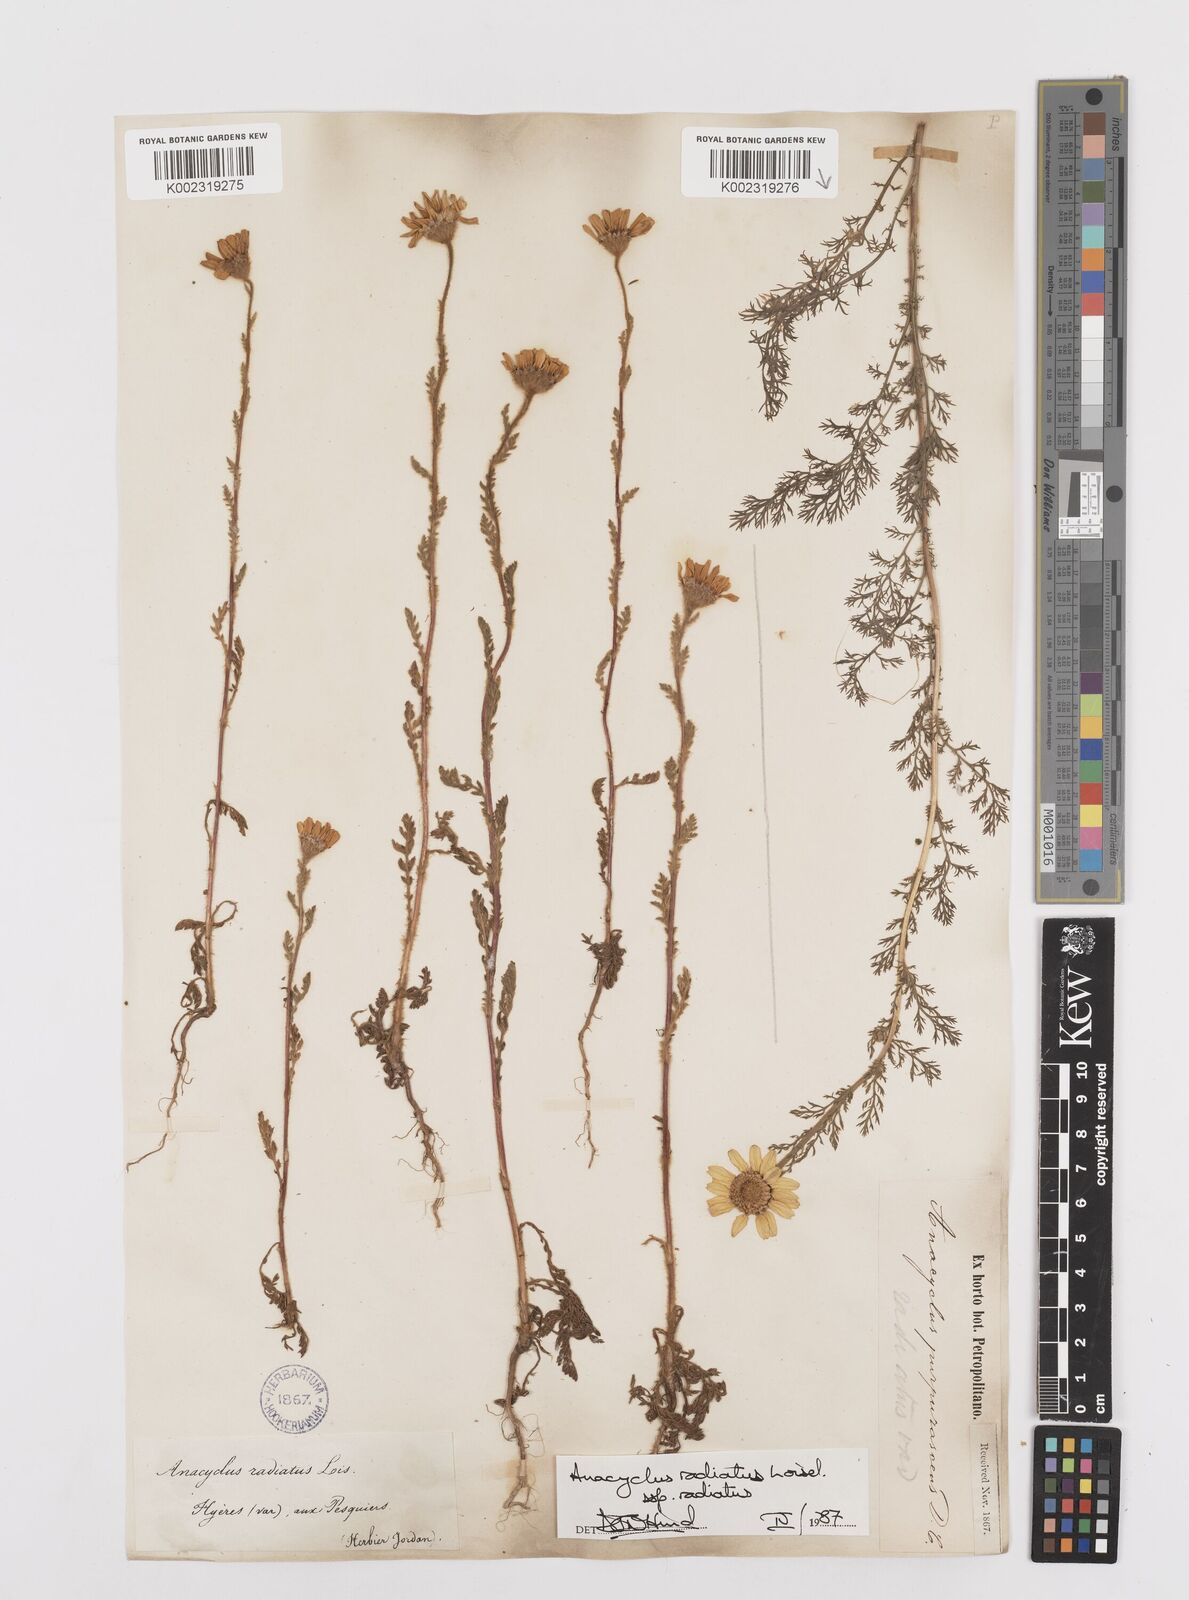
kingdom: Plantae
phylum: Tracheophyta
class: Magnoliopsida
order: Asterales
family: Asteraceae
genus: Anacyclus
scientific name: Anacyclus radiatus
